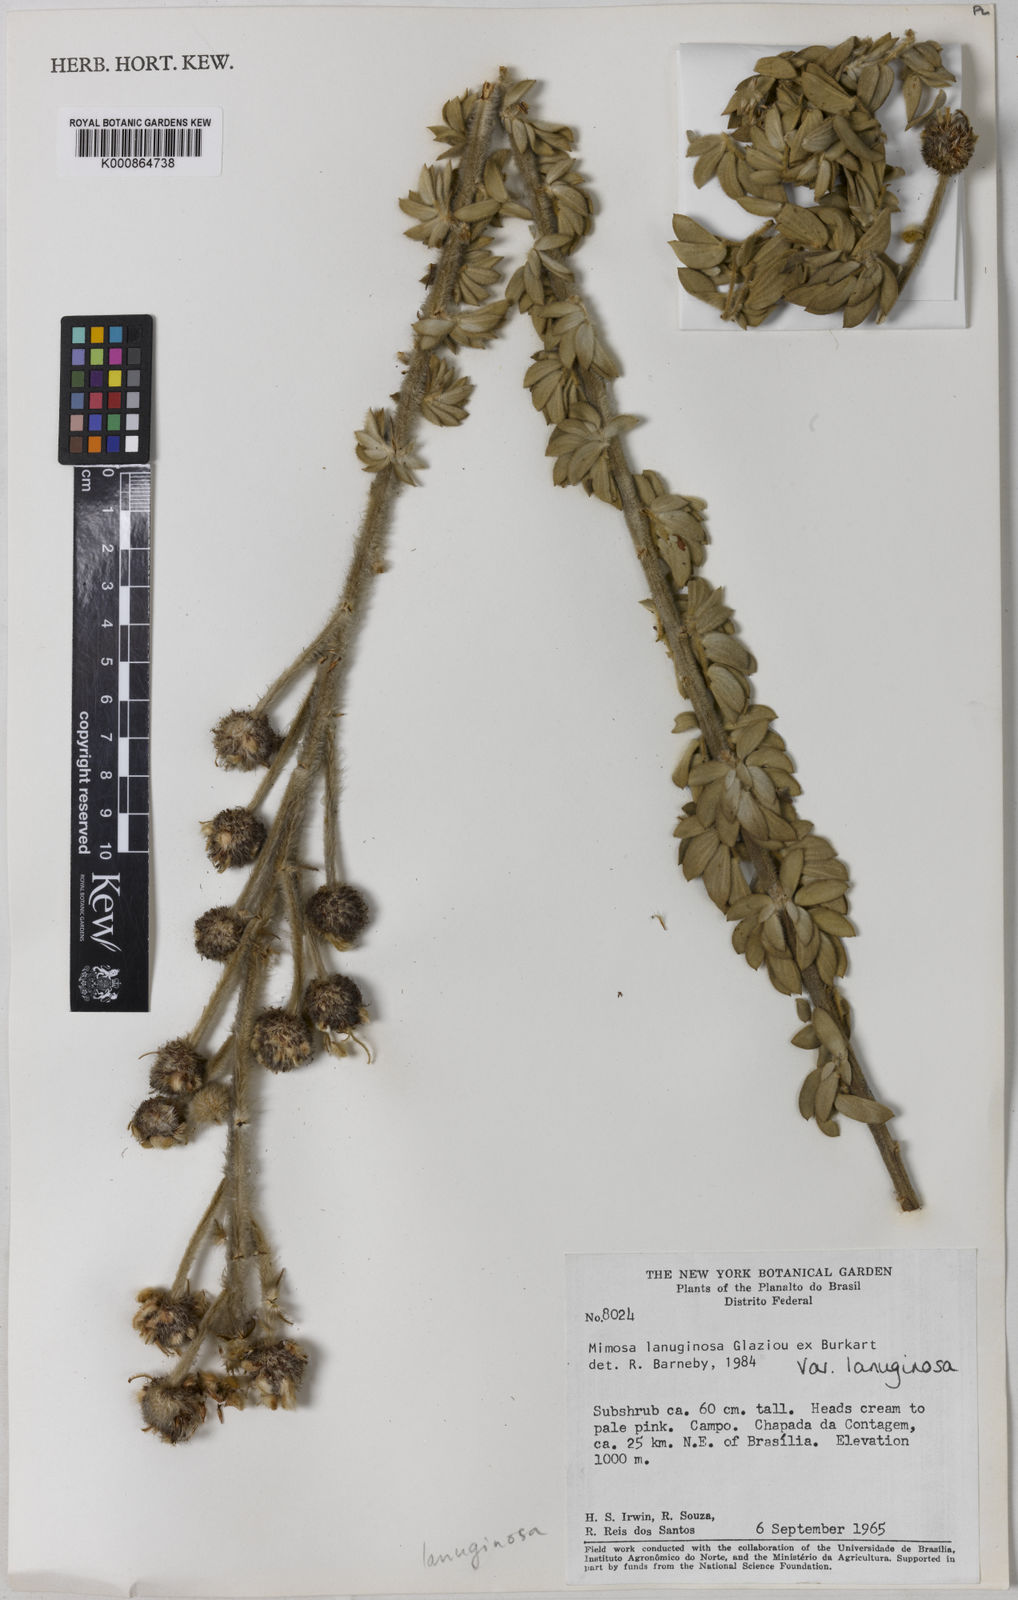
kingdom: Plantae
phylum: Tracheophyta
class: Magnoliopsida
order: Fabales
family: Fabaceae
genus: Mimosa
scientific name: Mimosa lanuginosa
